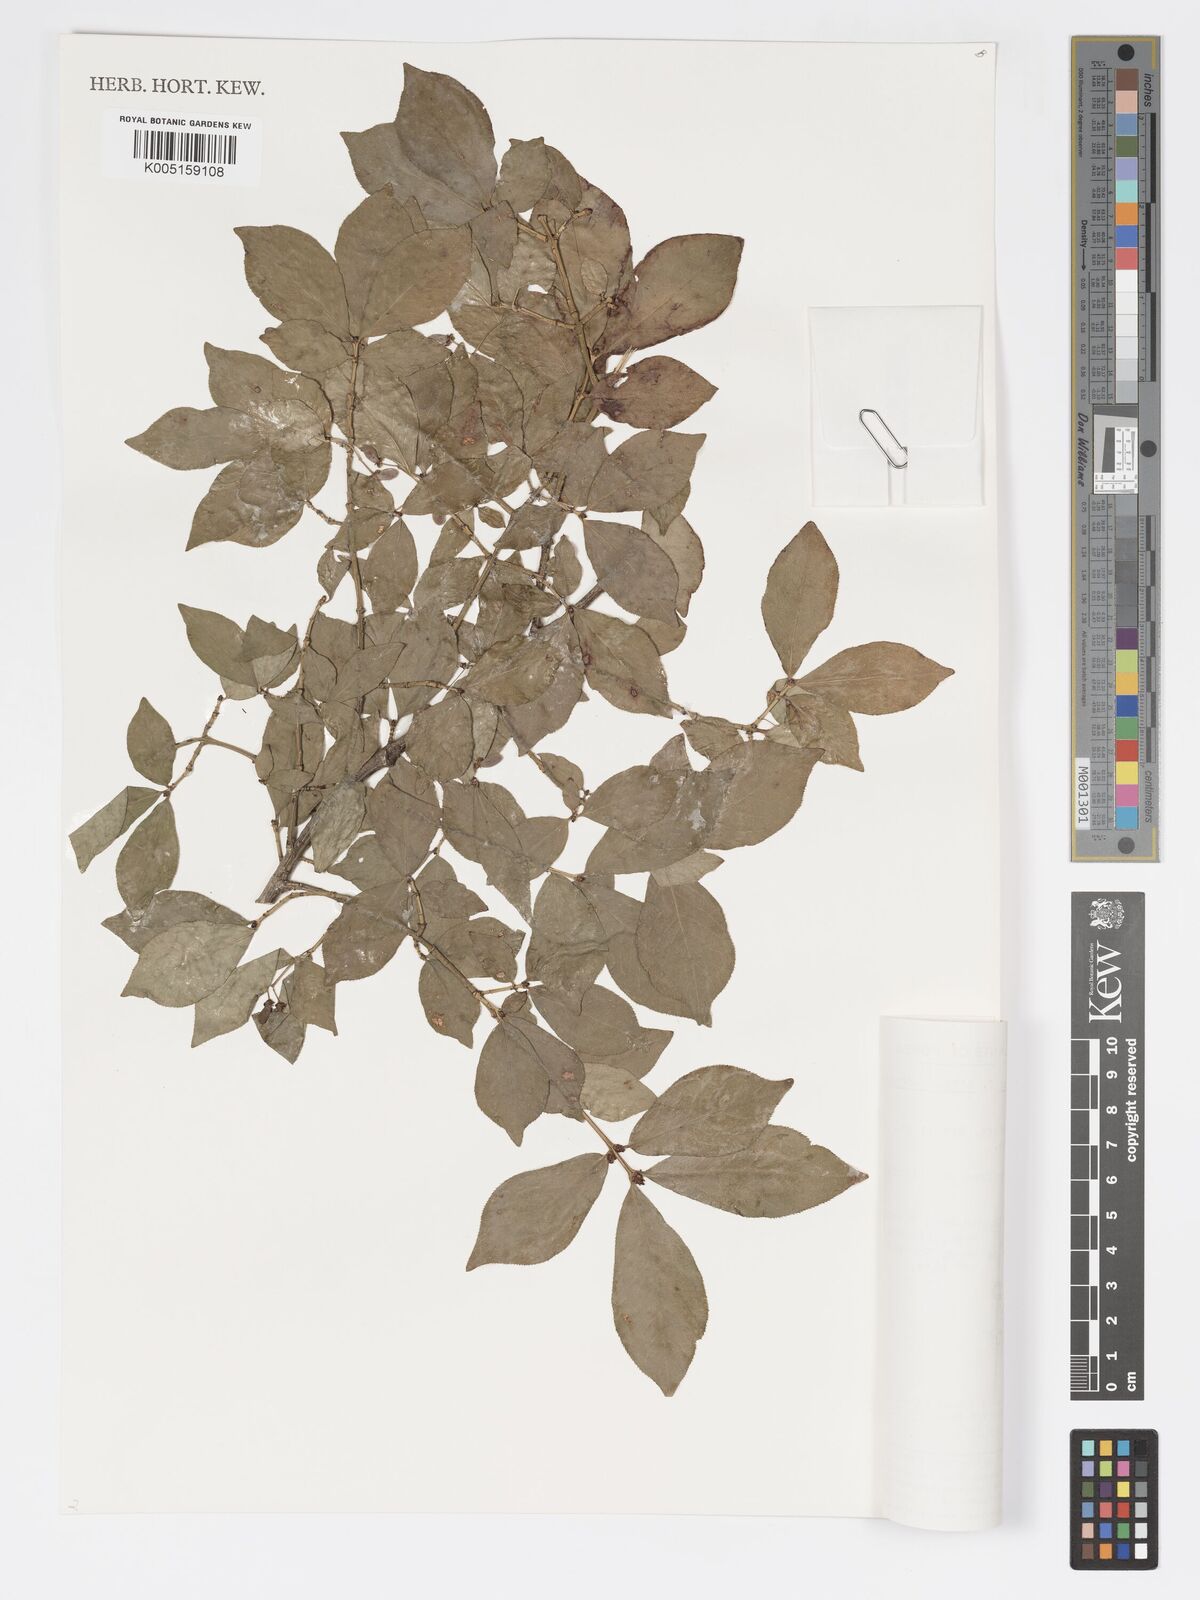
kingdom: Plantae
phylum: Tracheophyta
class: Magnoliopsida
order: Celastrales
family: Celastraceae
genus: Euonymus
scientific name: Euonymus
